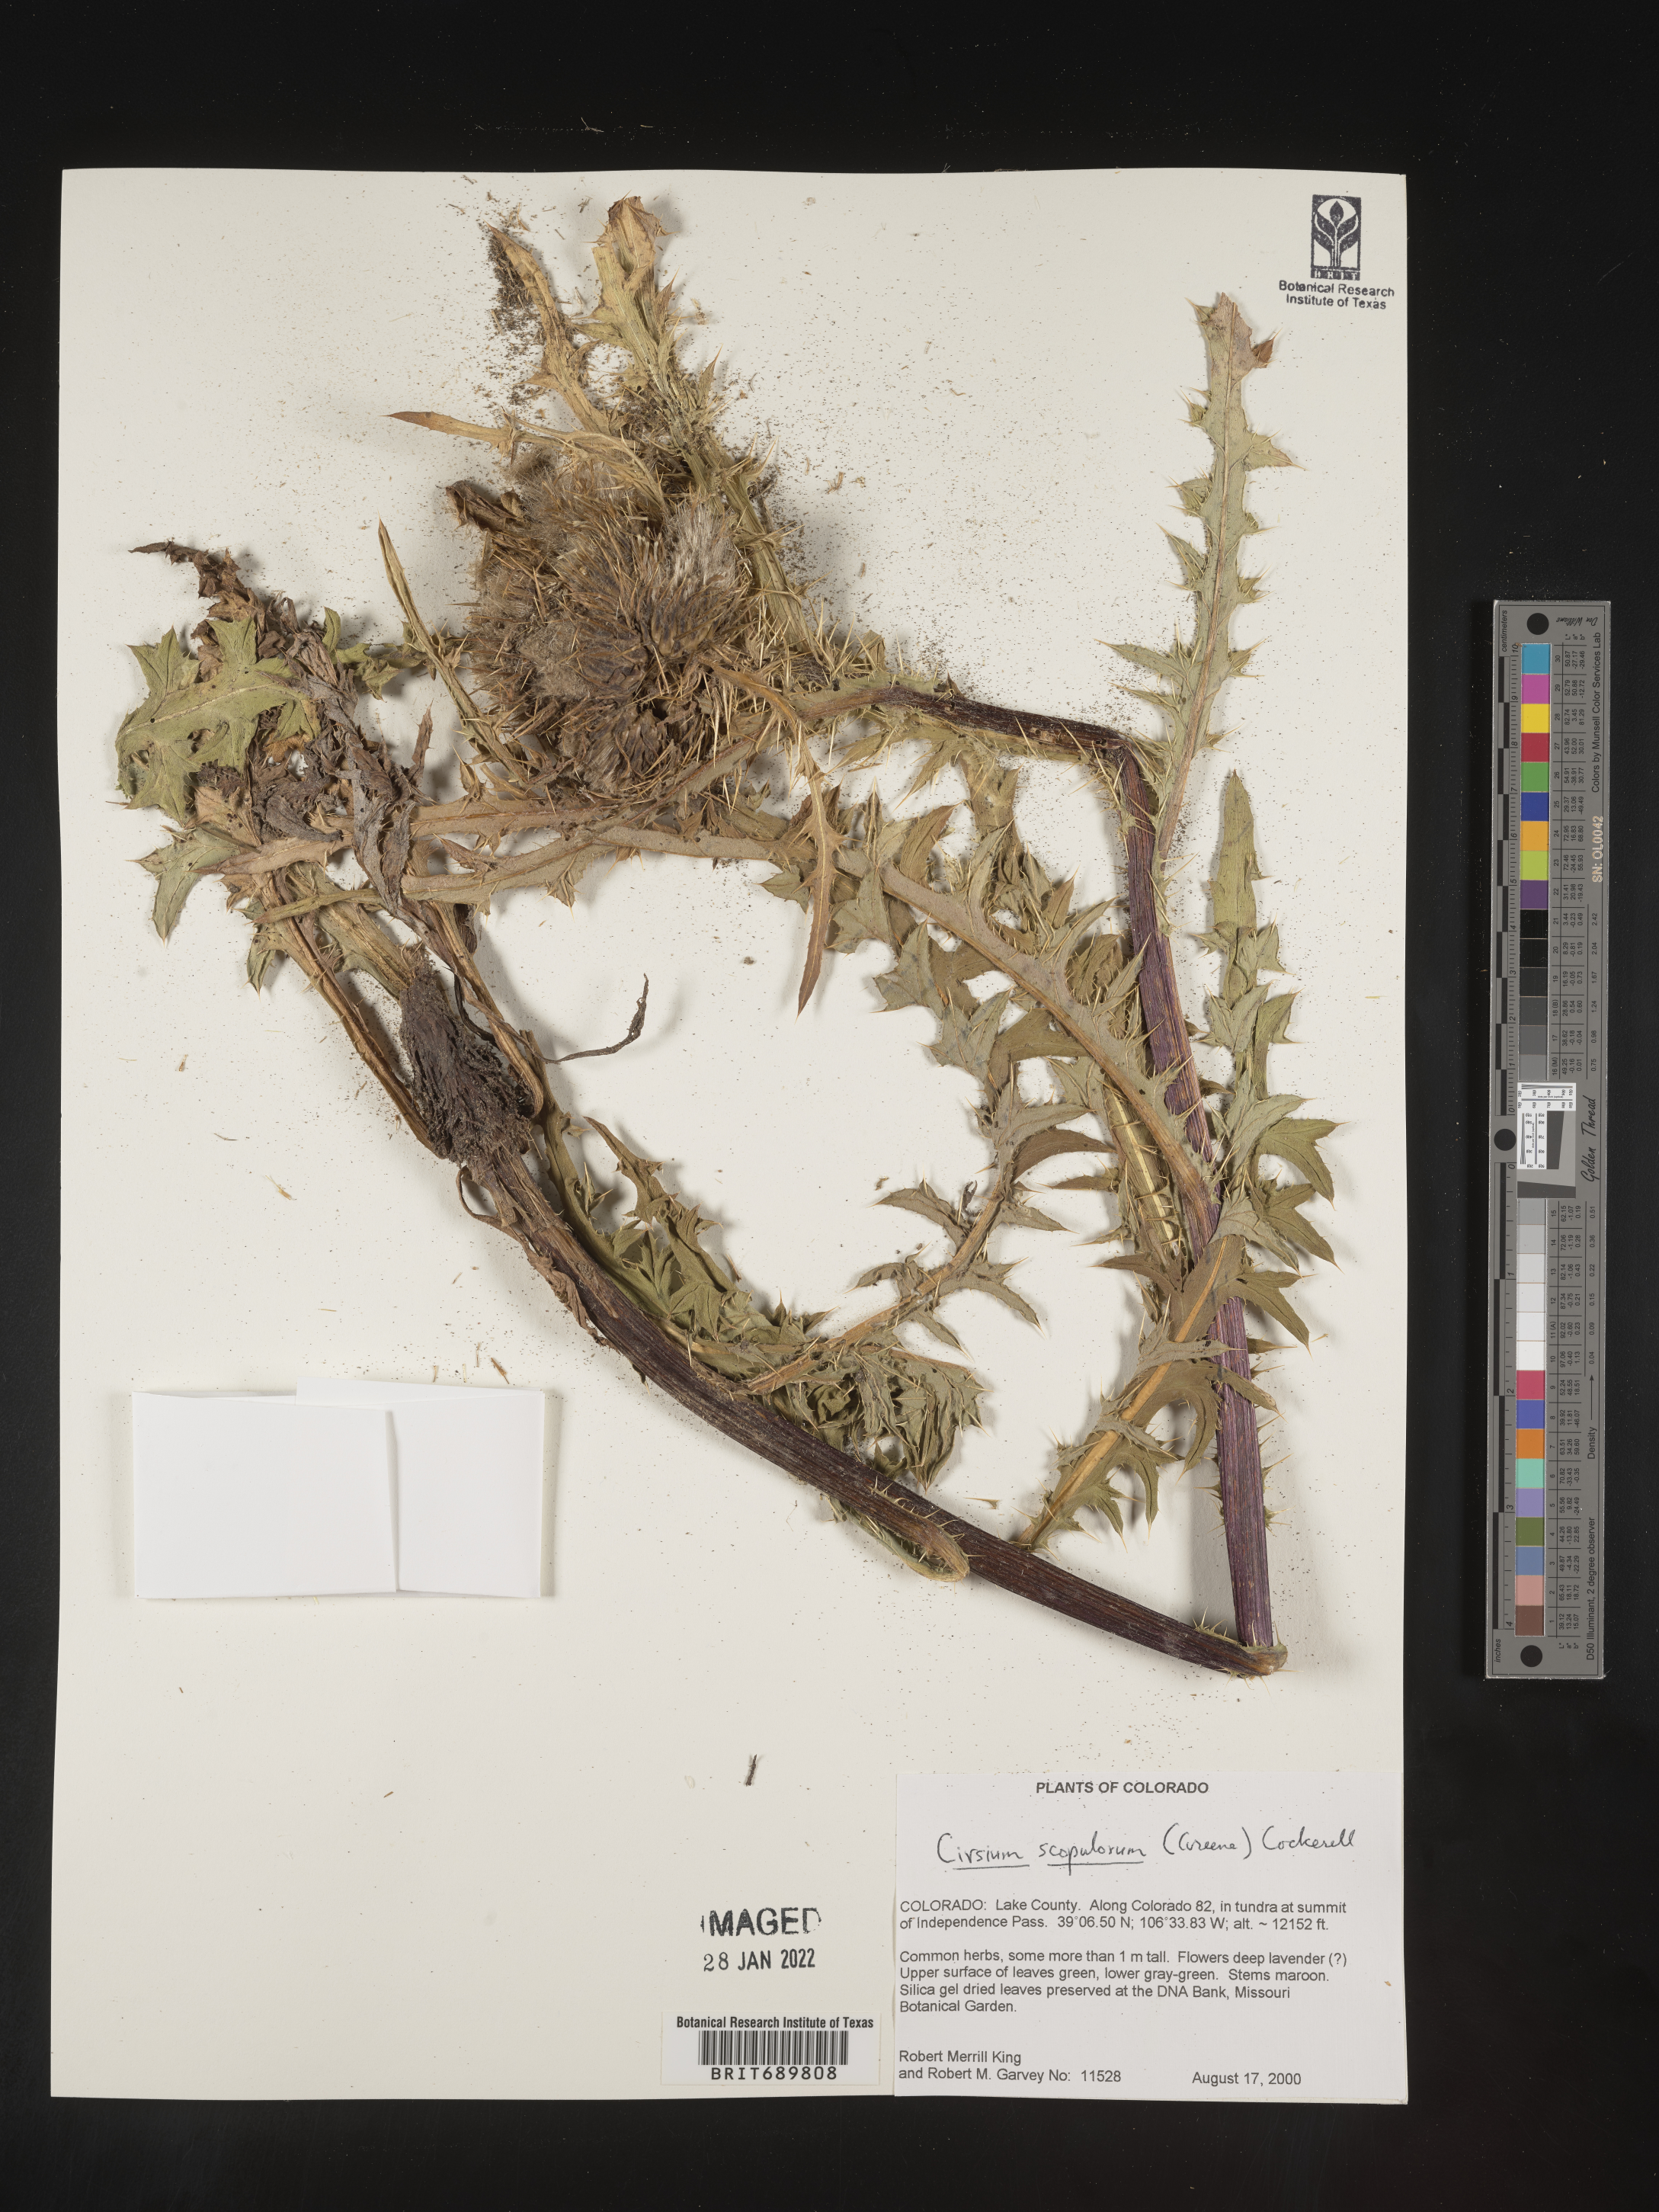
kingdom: Plantae
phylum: Tracheophyta
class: Magnoliopsida
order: Asterales
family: Asteraceae
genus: Cirsium
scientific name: Cirsium scopulorum
